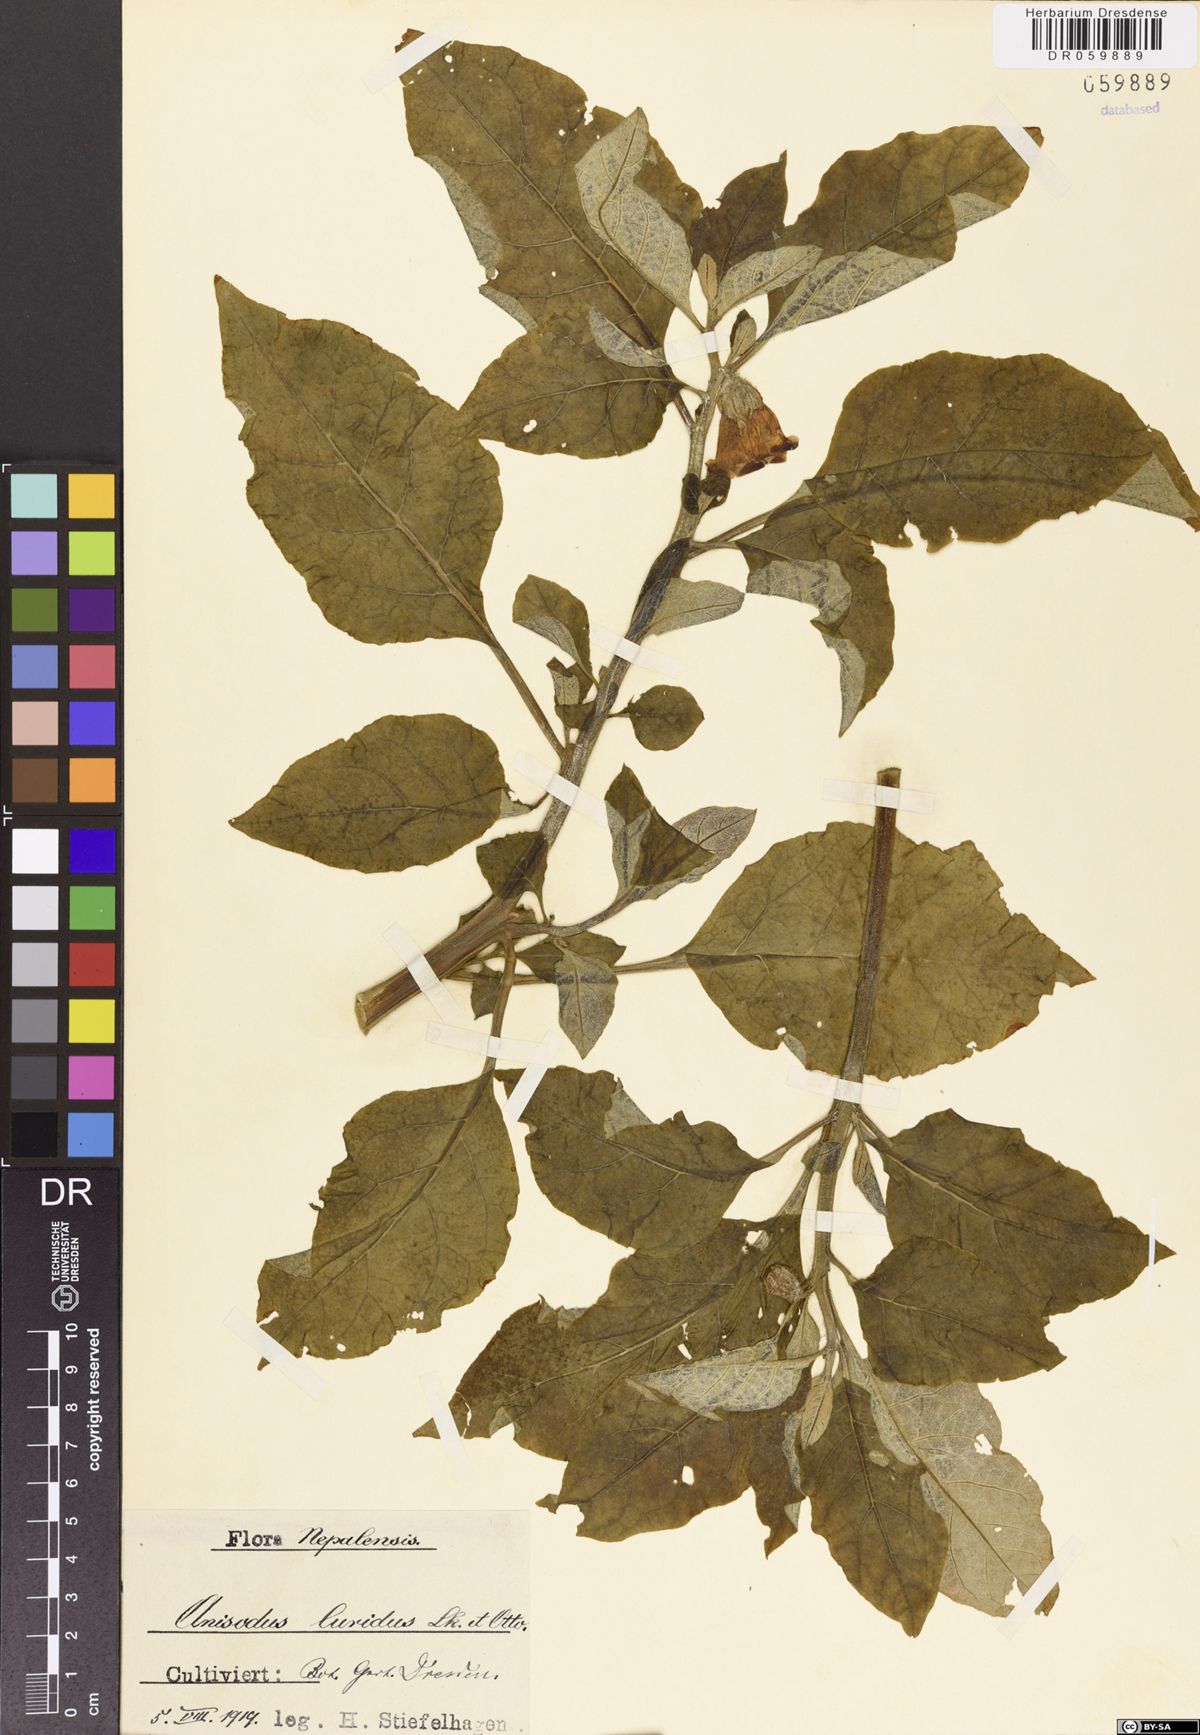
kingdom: Plantae
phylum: Tracheophyta
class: Magnoliopsida
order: Solanales
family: Solanaceae
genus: Anisodus
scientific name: Anisodus stramoniifolius
